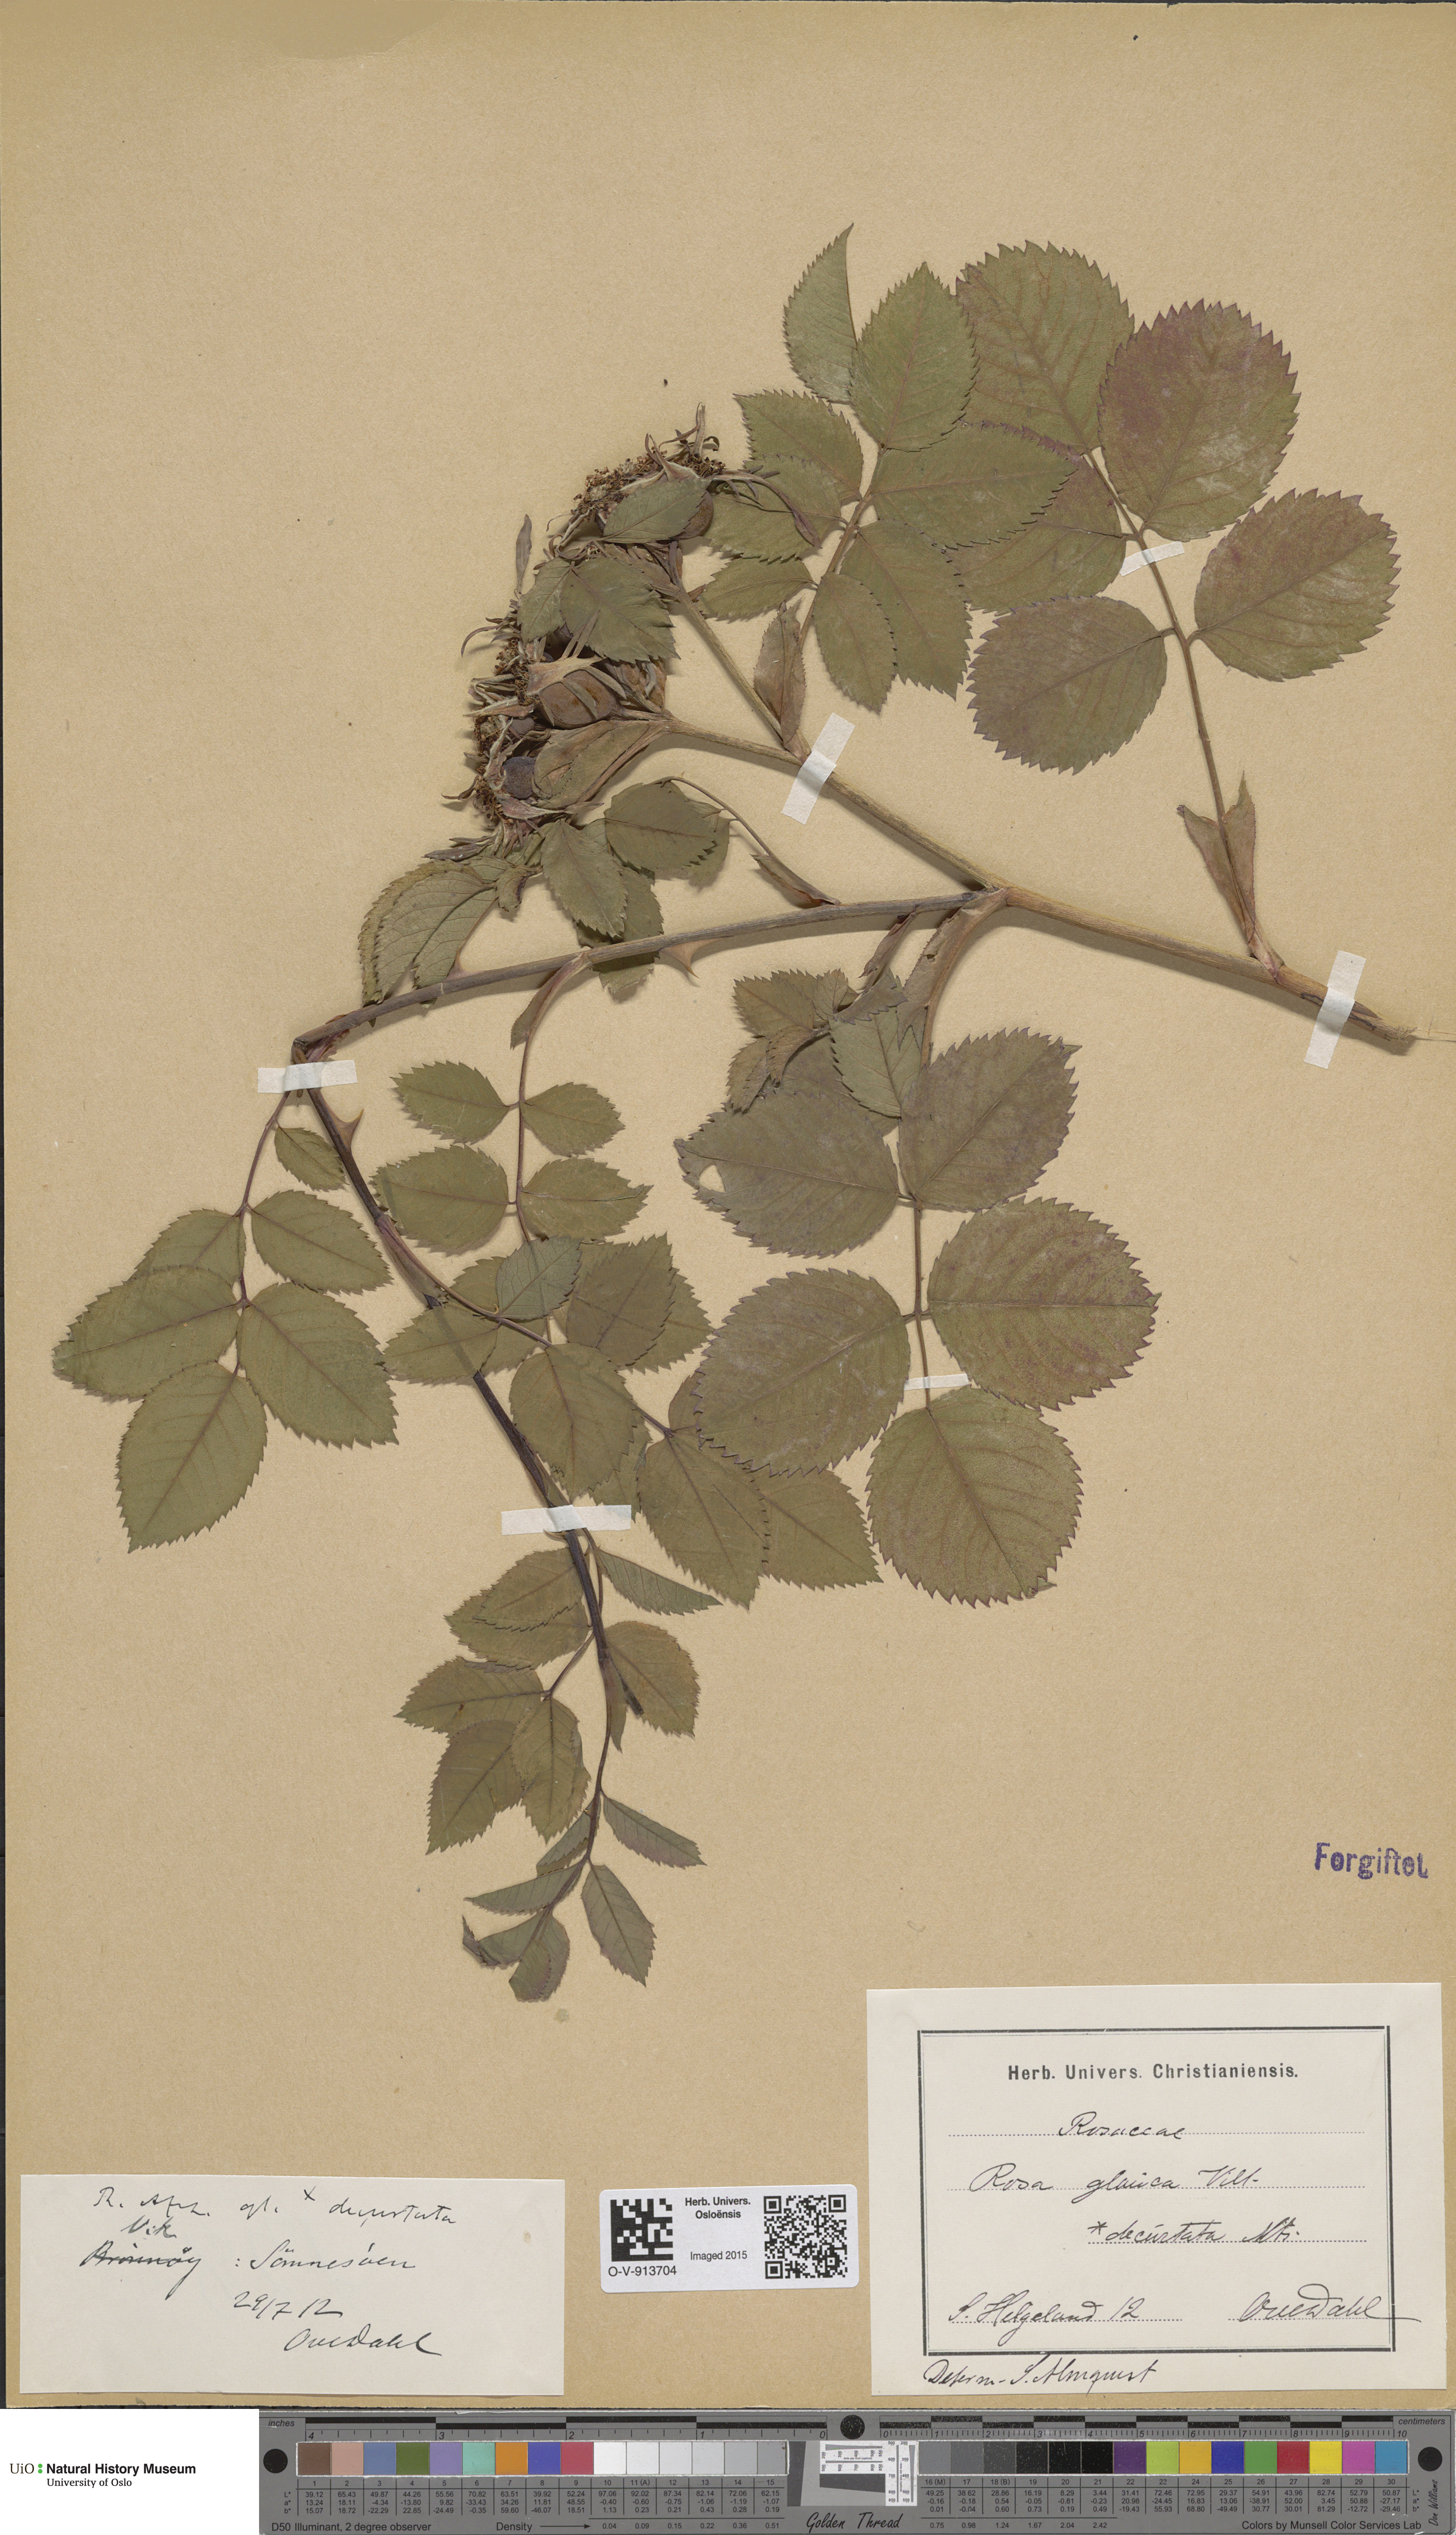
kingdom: Plantae
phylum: Tracheophyta
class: Magnoliopsida
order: Rosales
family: Rosaceae
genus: Rosa
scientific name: Rosa glauca
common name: Redleaf rose
